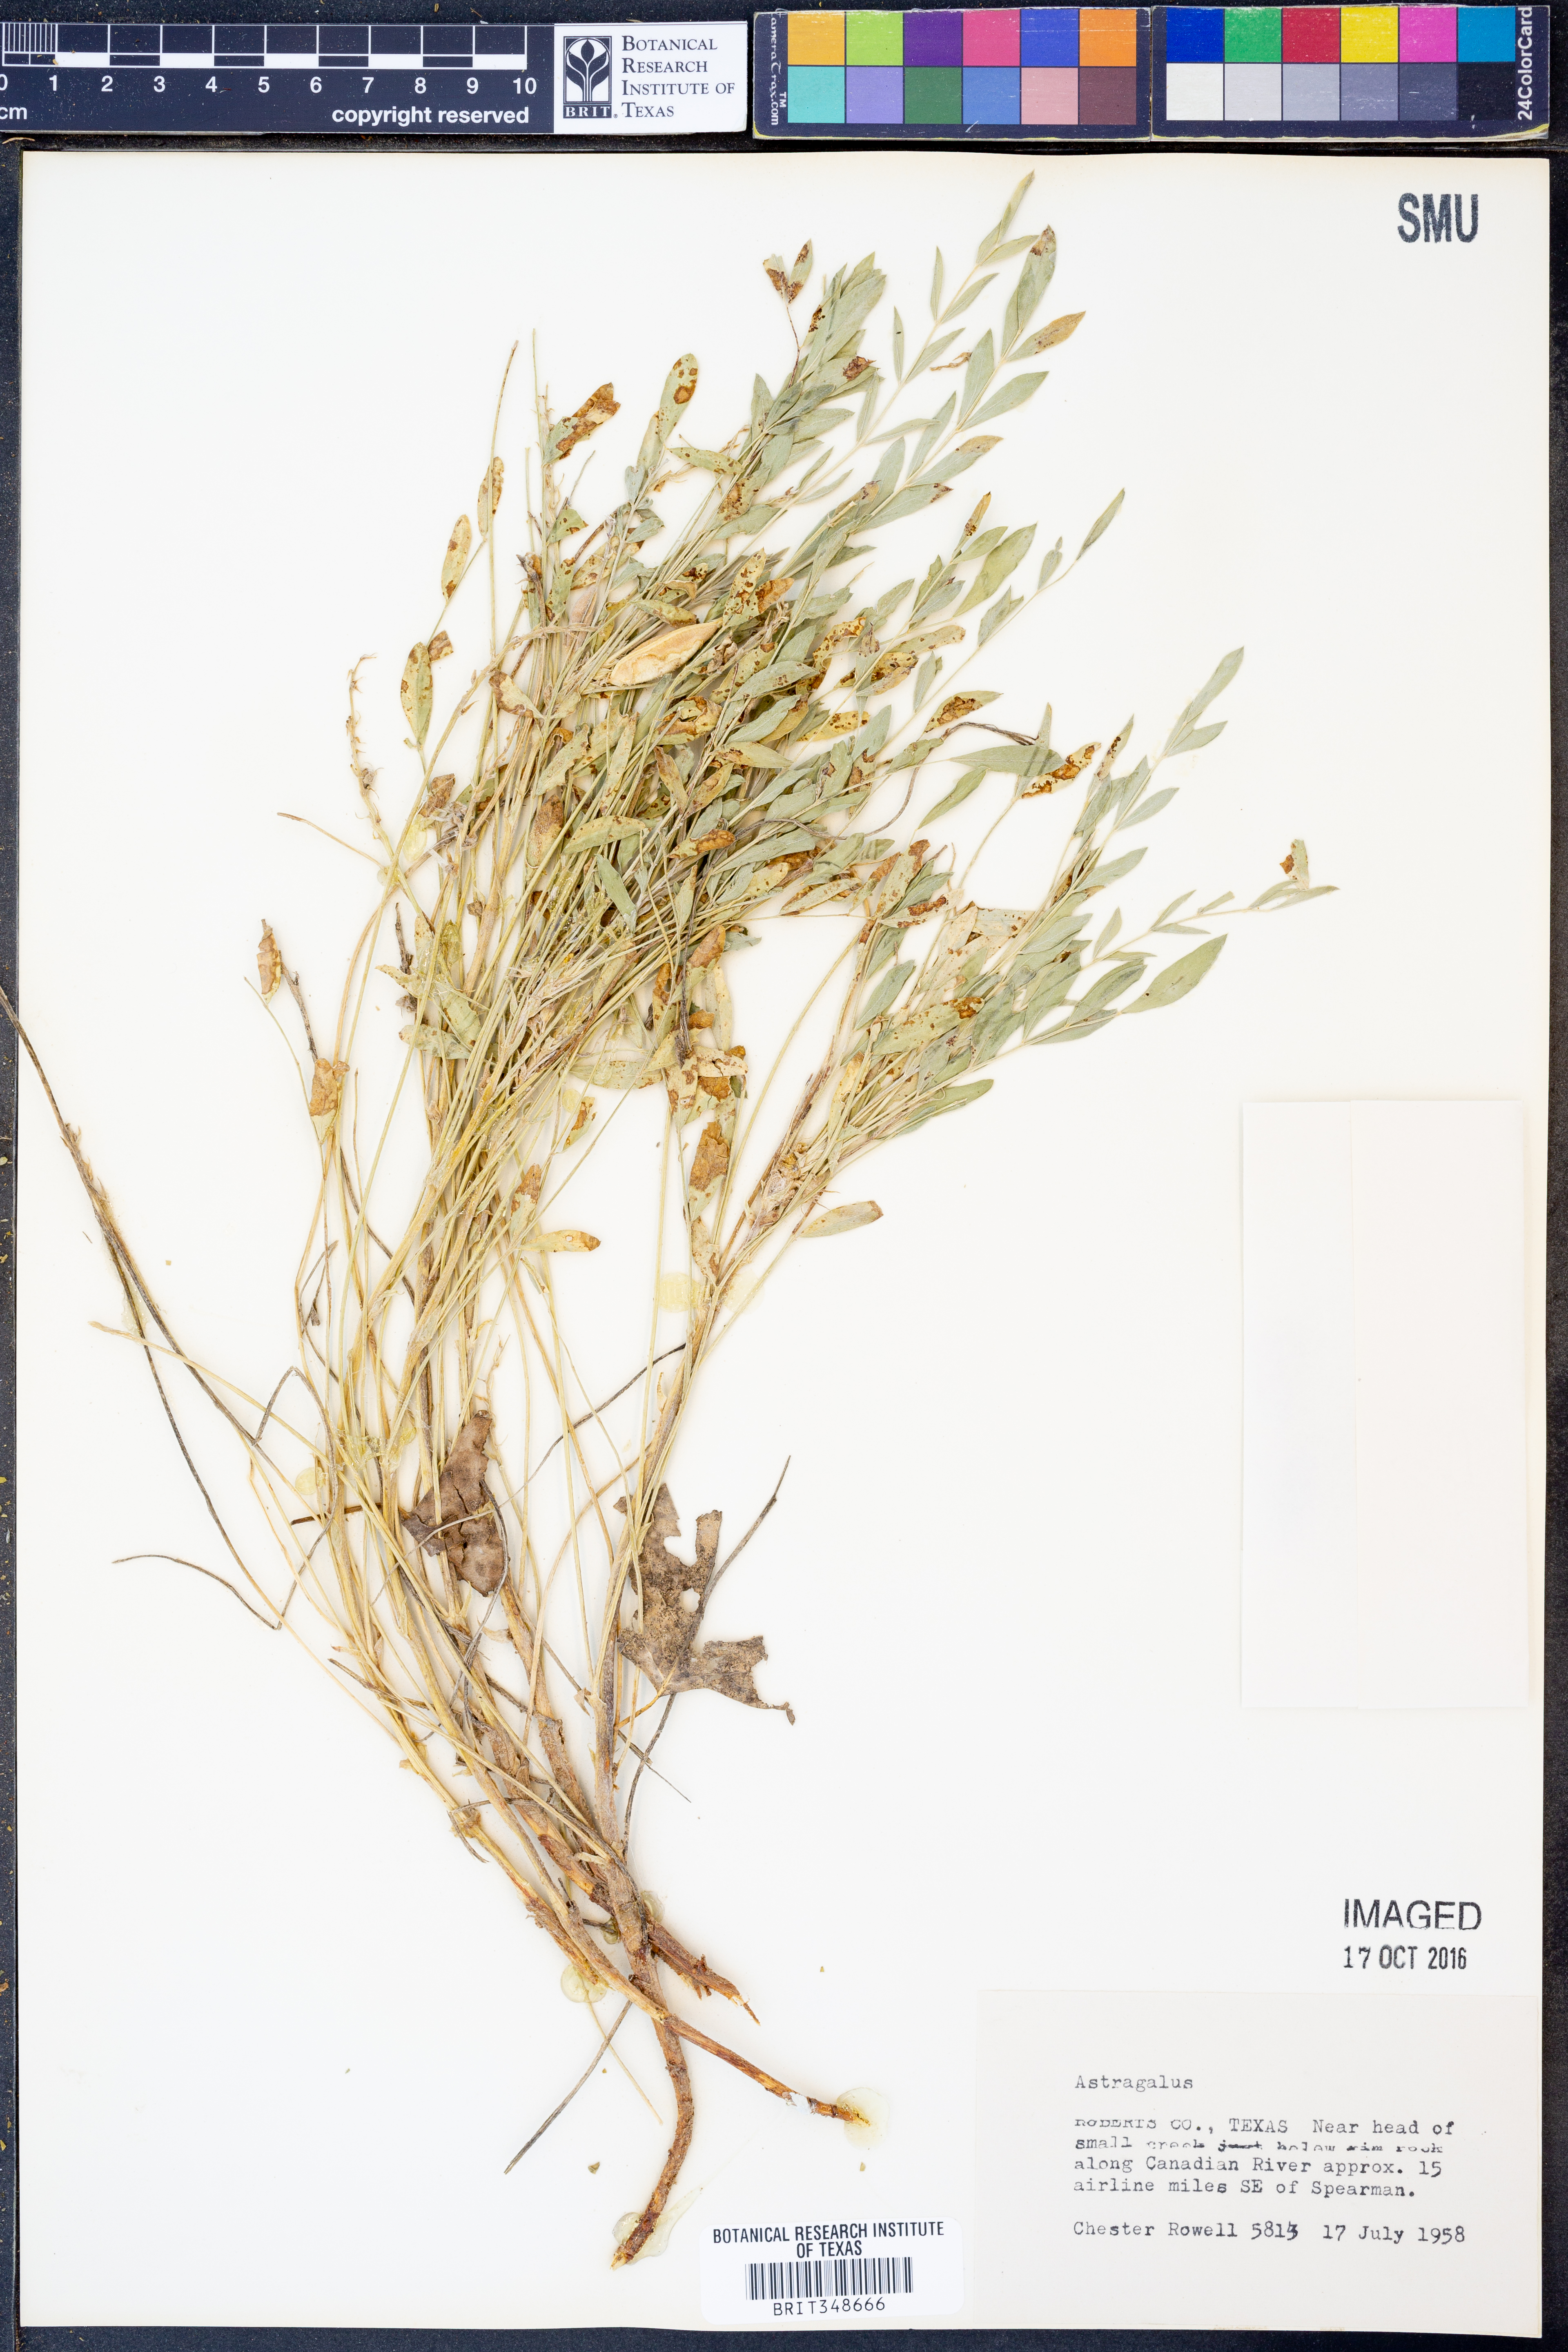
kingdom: Plantae
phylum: Tracheophyta
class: Magnoliopsida
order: Fabales
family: Fabaceae
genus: Astragalus
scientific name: Astragalus
